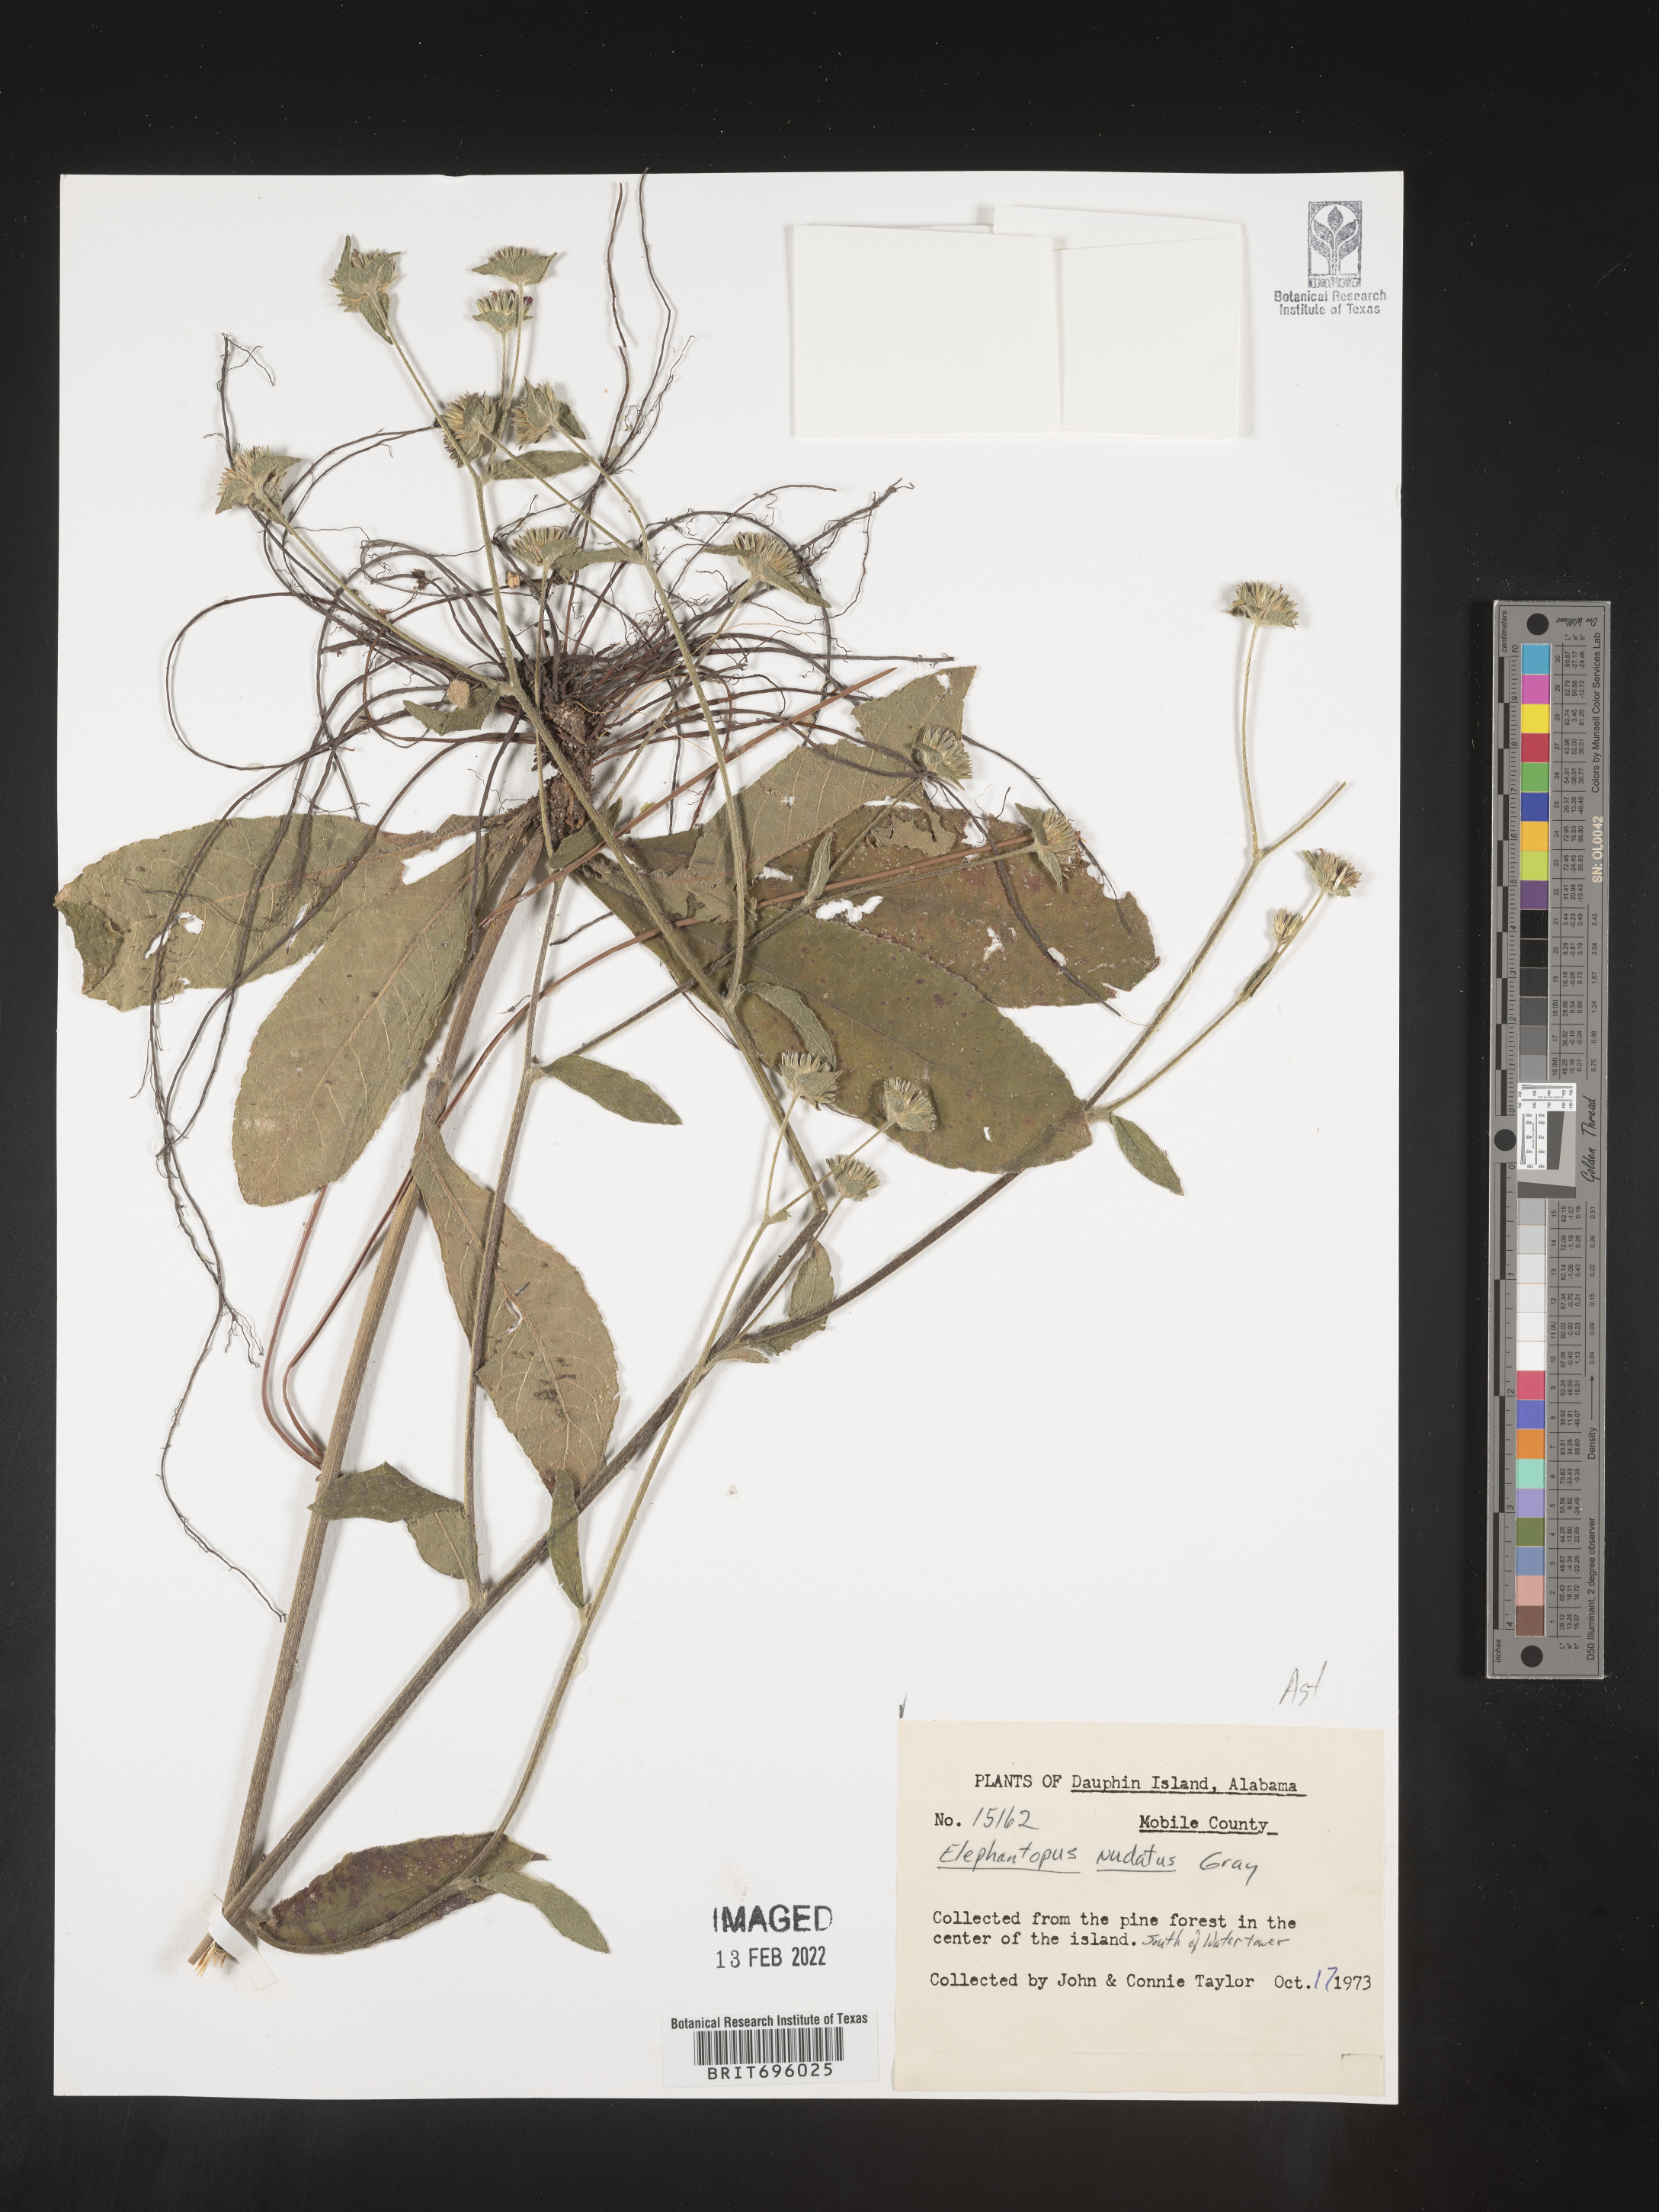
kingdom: Plantae
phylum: Tracheophyta
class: Magnoliopsida
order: Asterales
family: Asteraceae
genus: Elephantopus
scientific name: Elephantopus nudatus
